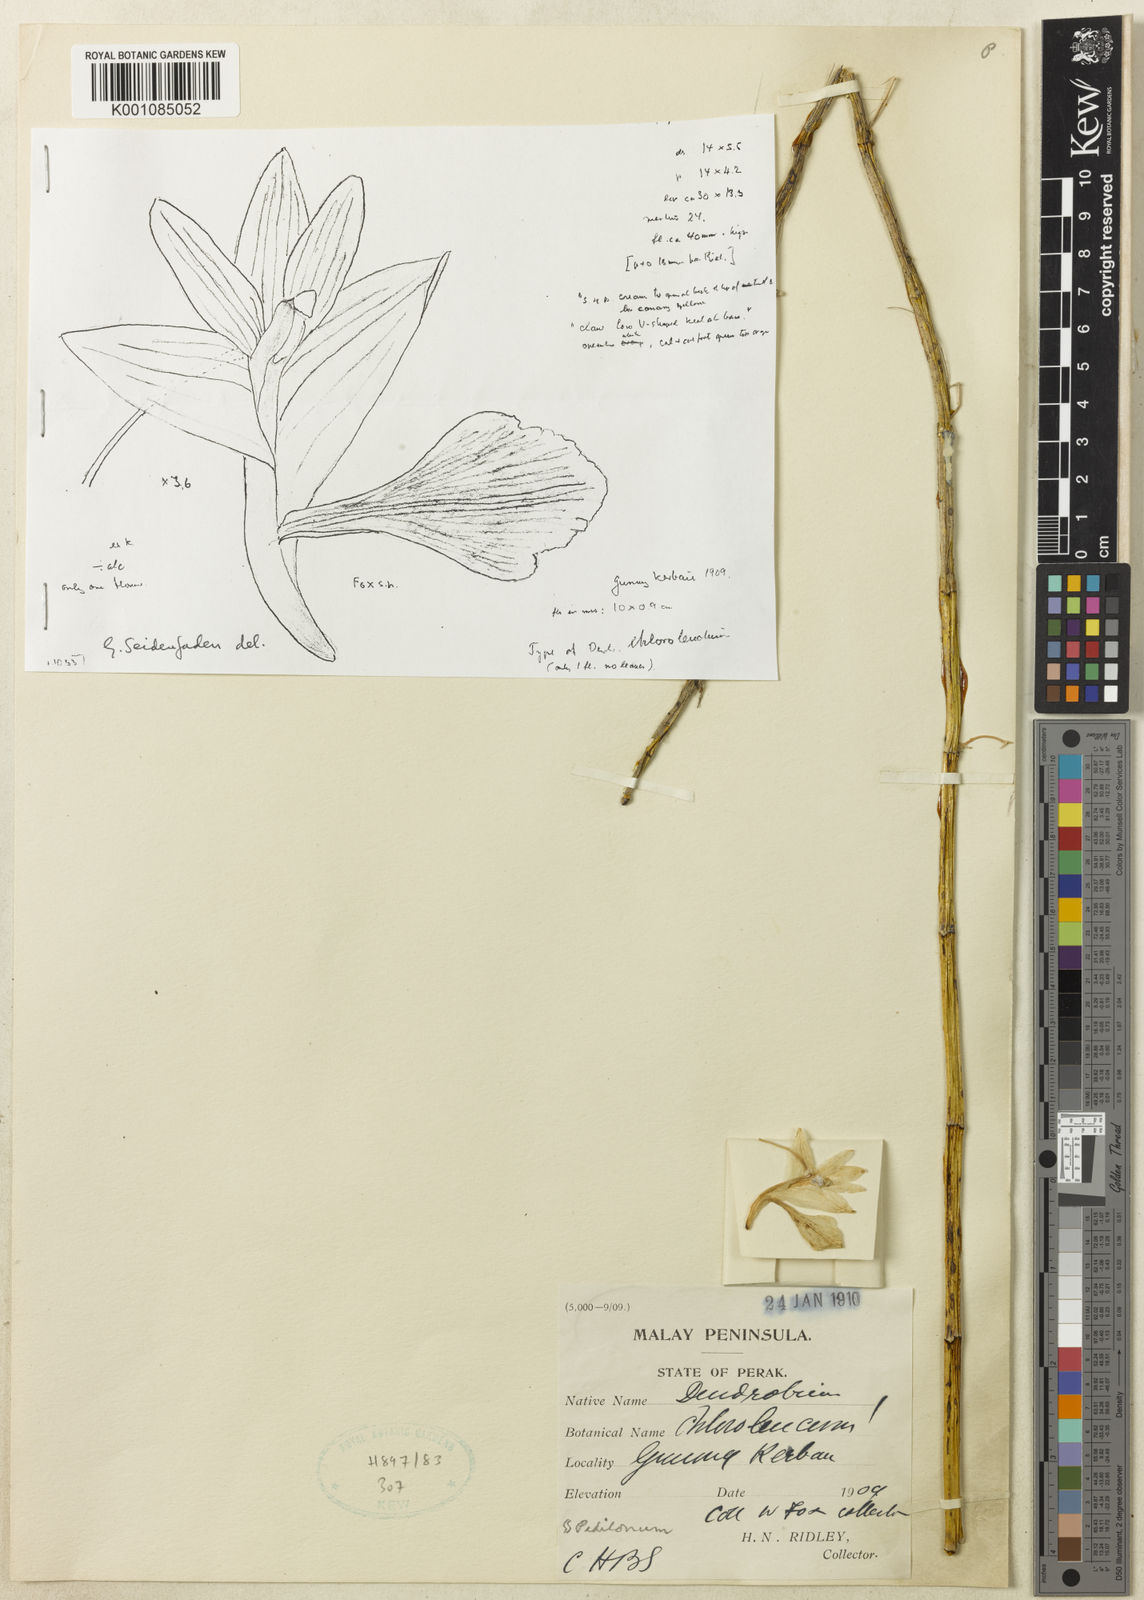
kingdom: Plantae
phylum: Tracheophyta
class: Liliopsida
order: Asparagales
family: Orchidaceae
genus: Dendrobium
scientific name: Dendrobium subflavidum
